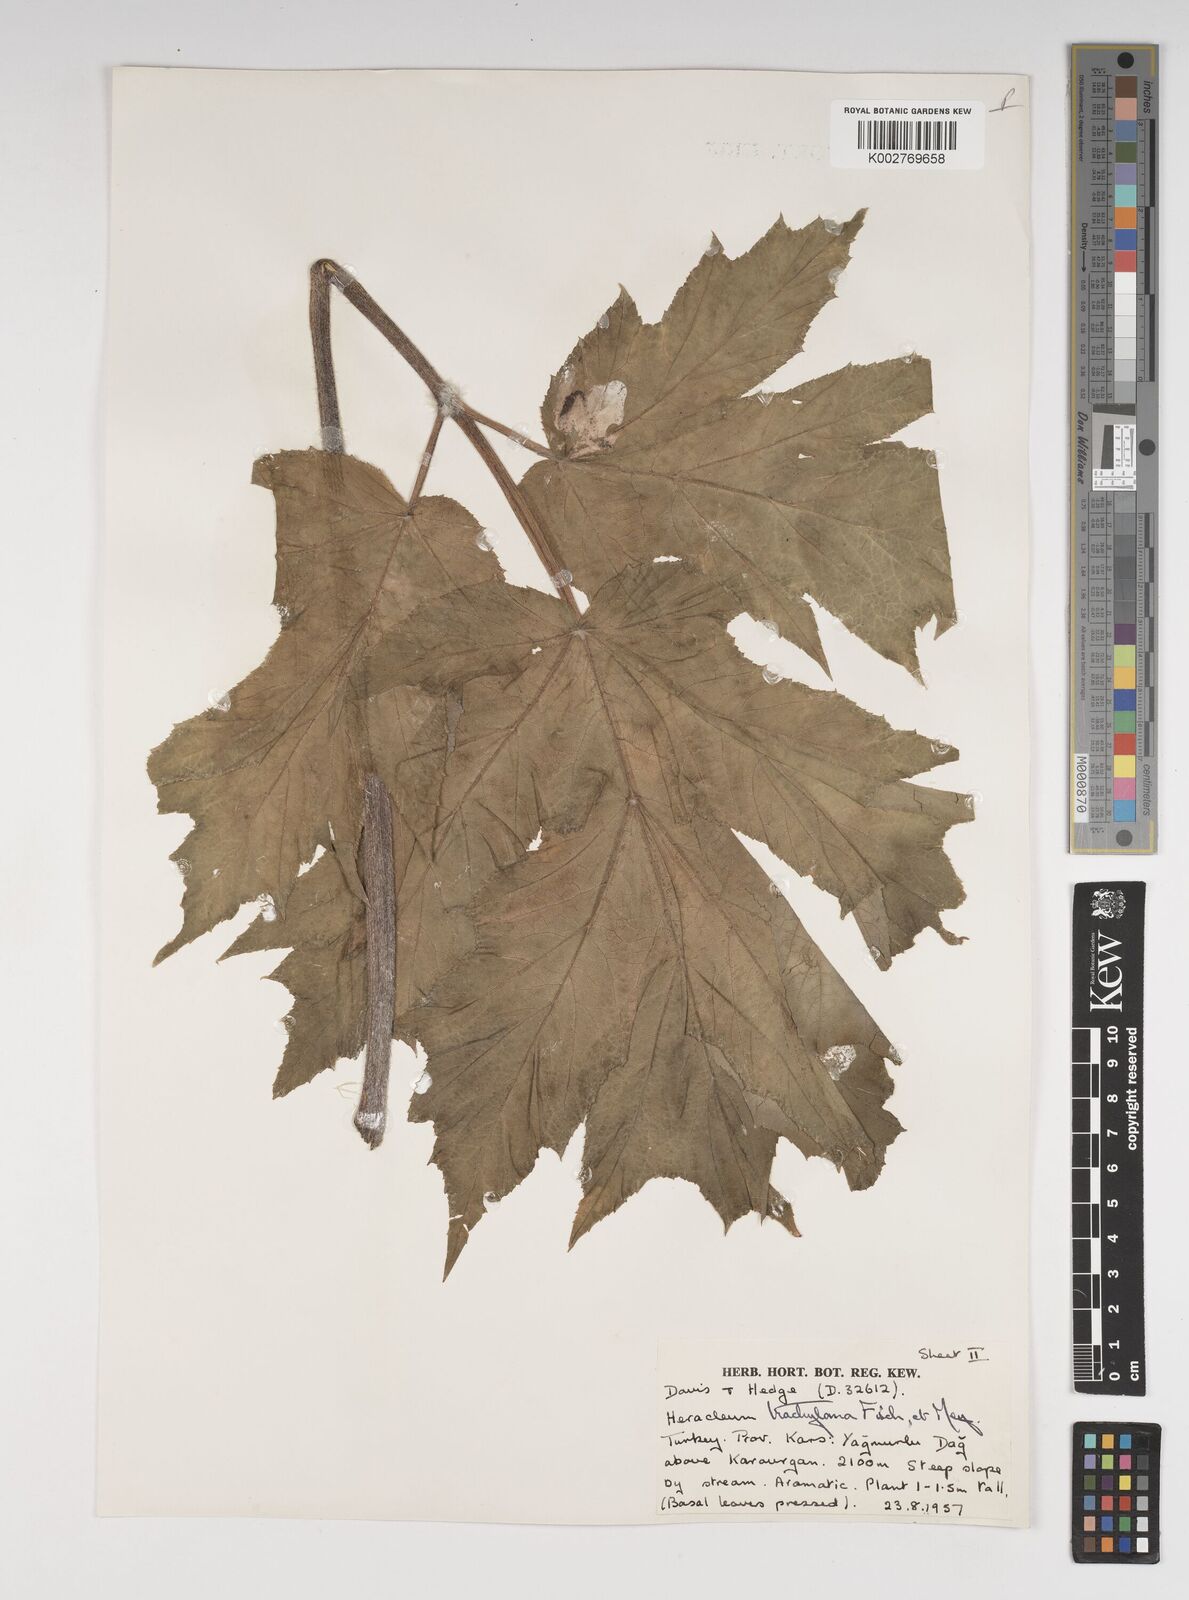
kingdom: Plantae
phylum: Tracheophyta
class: Magnoliopsida
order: Apiales
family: Apiaceae
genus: Heracleum
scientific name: Heracleum trachyloma
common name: Downy cow-parsnip
